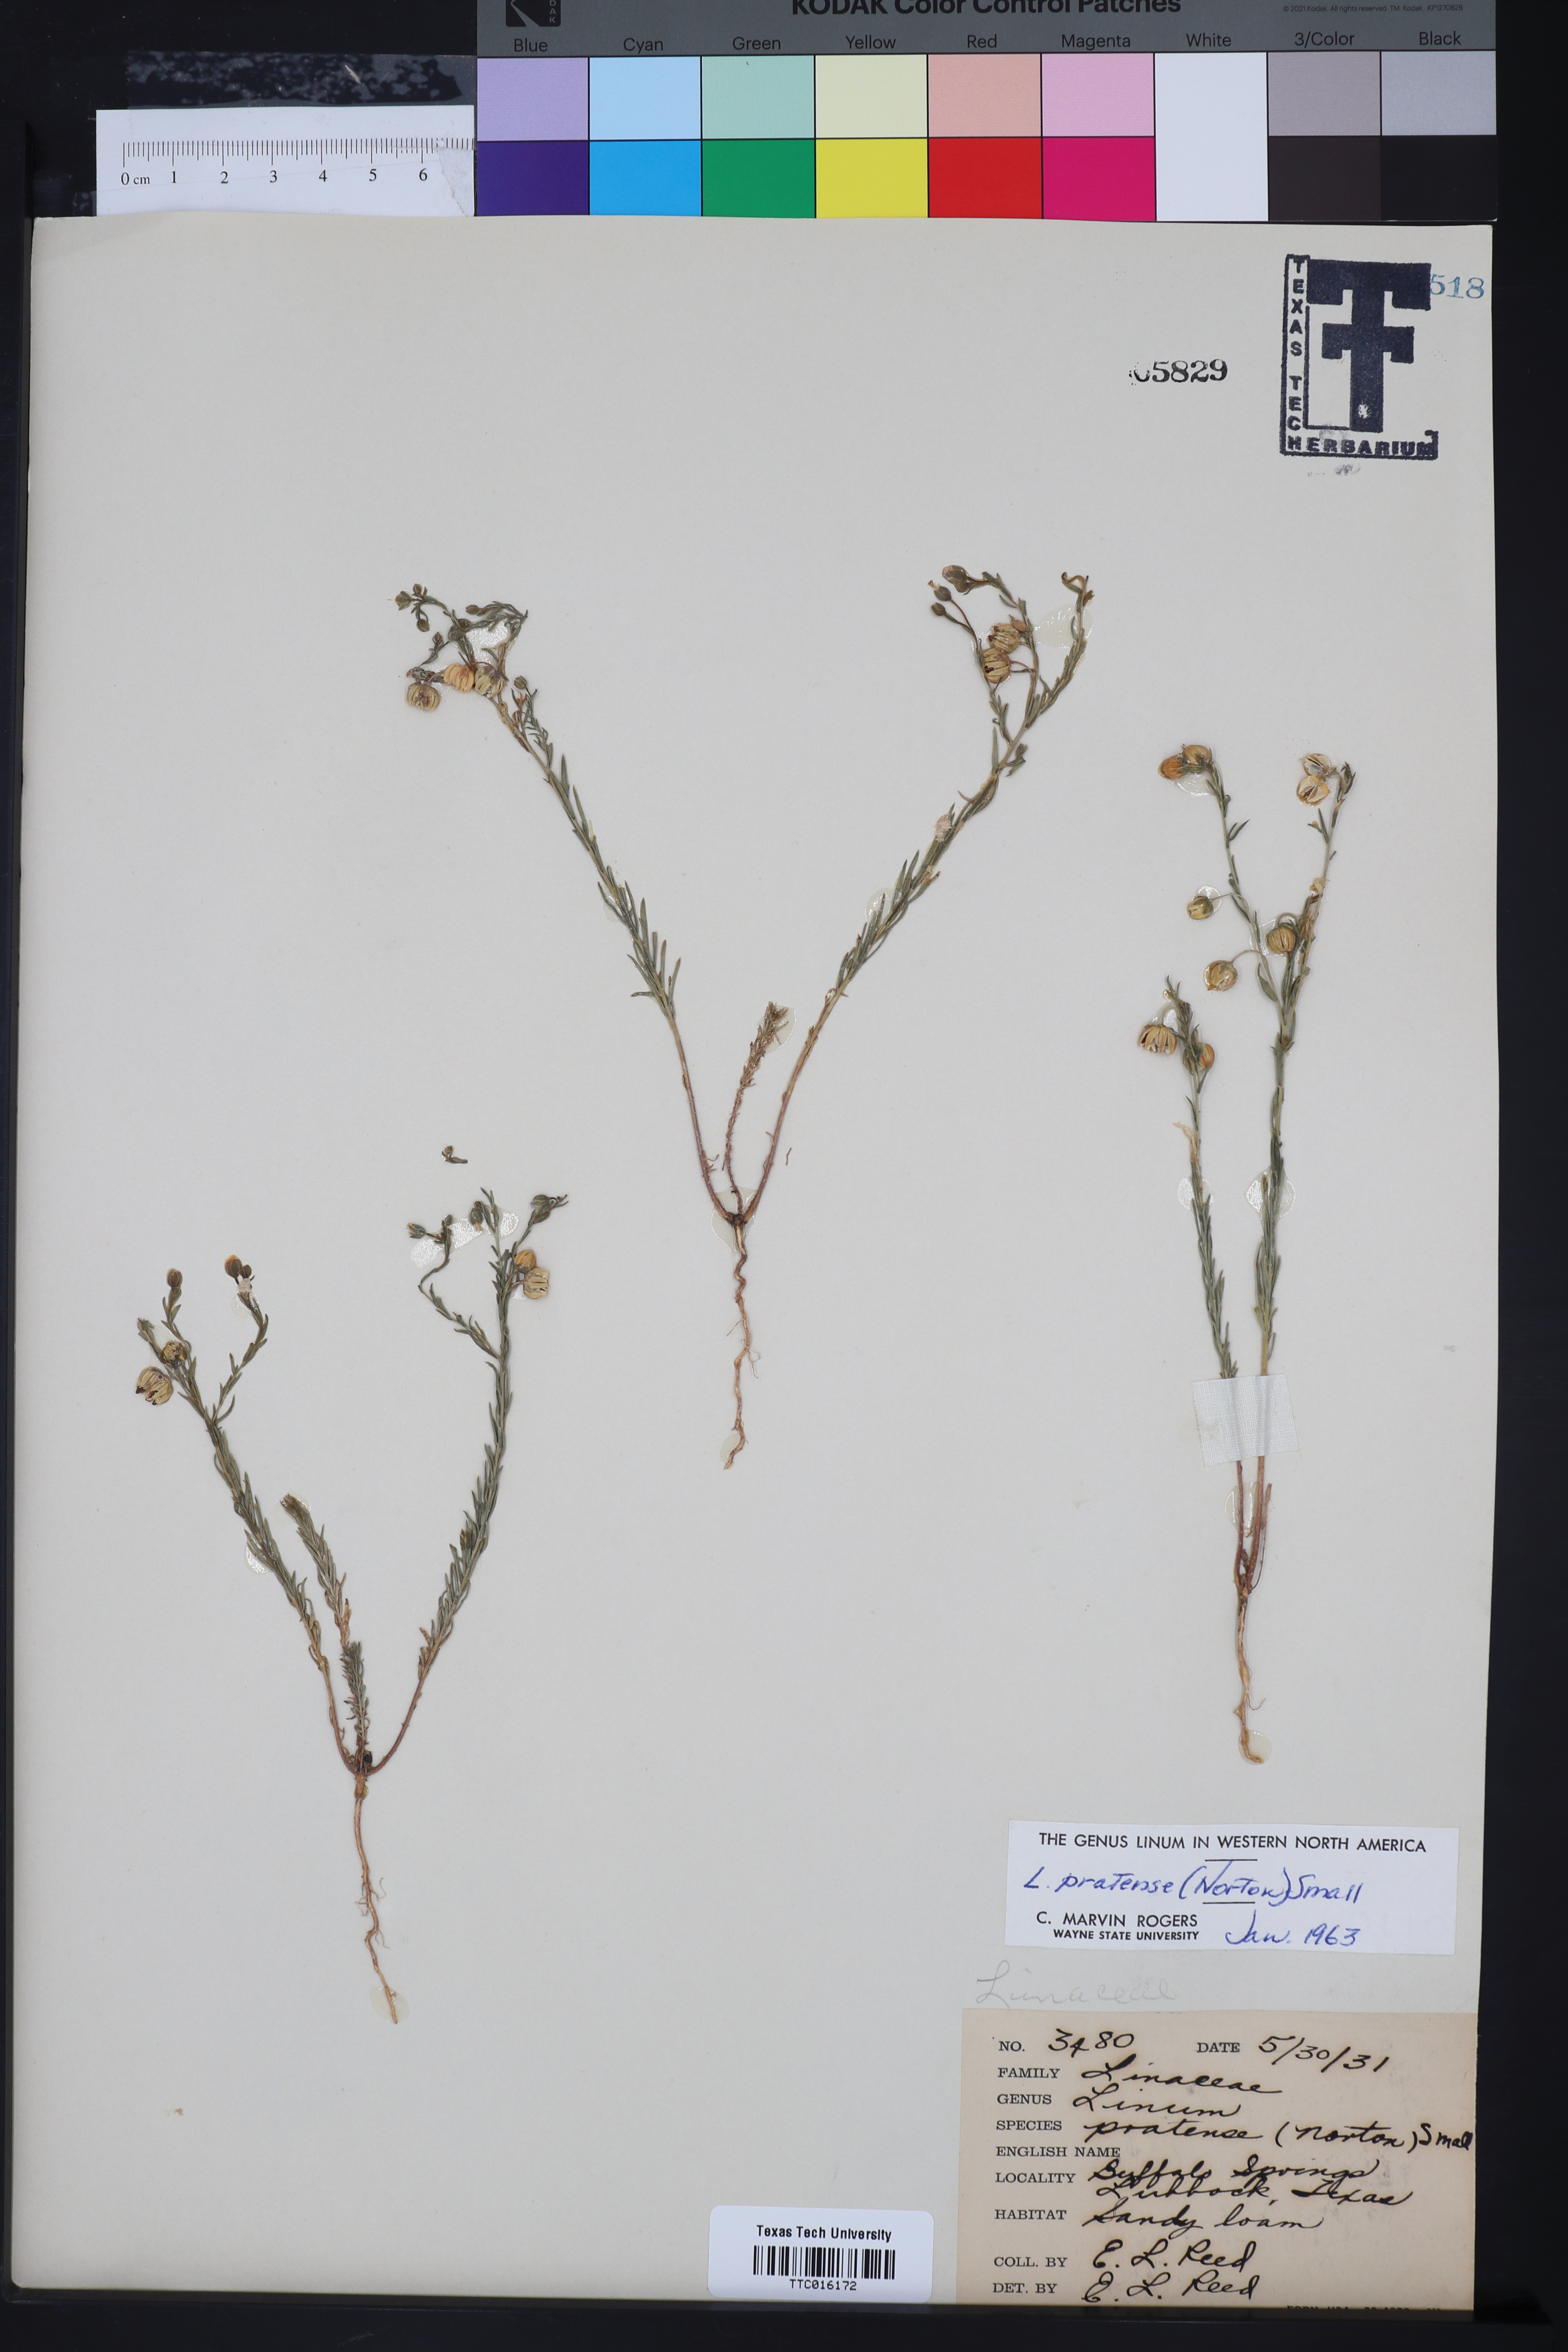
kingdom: Plantae
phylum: Tracheophyta
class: Magnoliopsida
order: Malpighiales
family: Linaceae
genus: Linum
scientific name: Linum pratense
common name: Norton's flax
